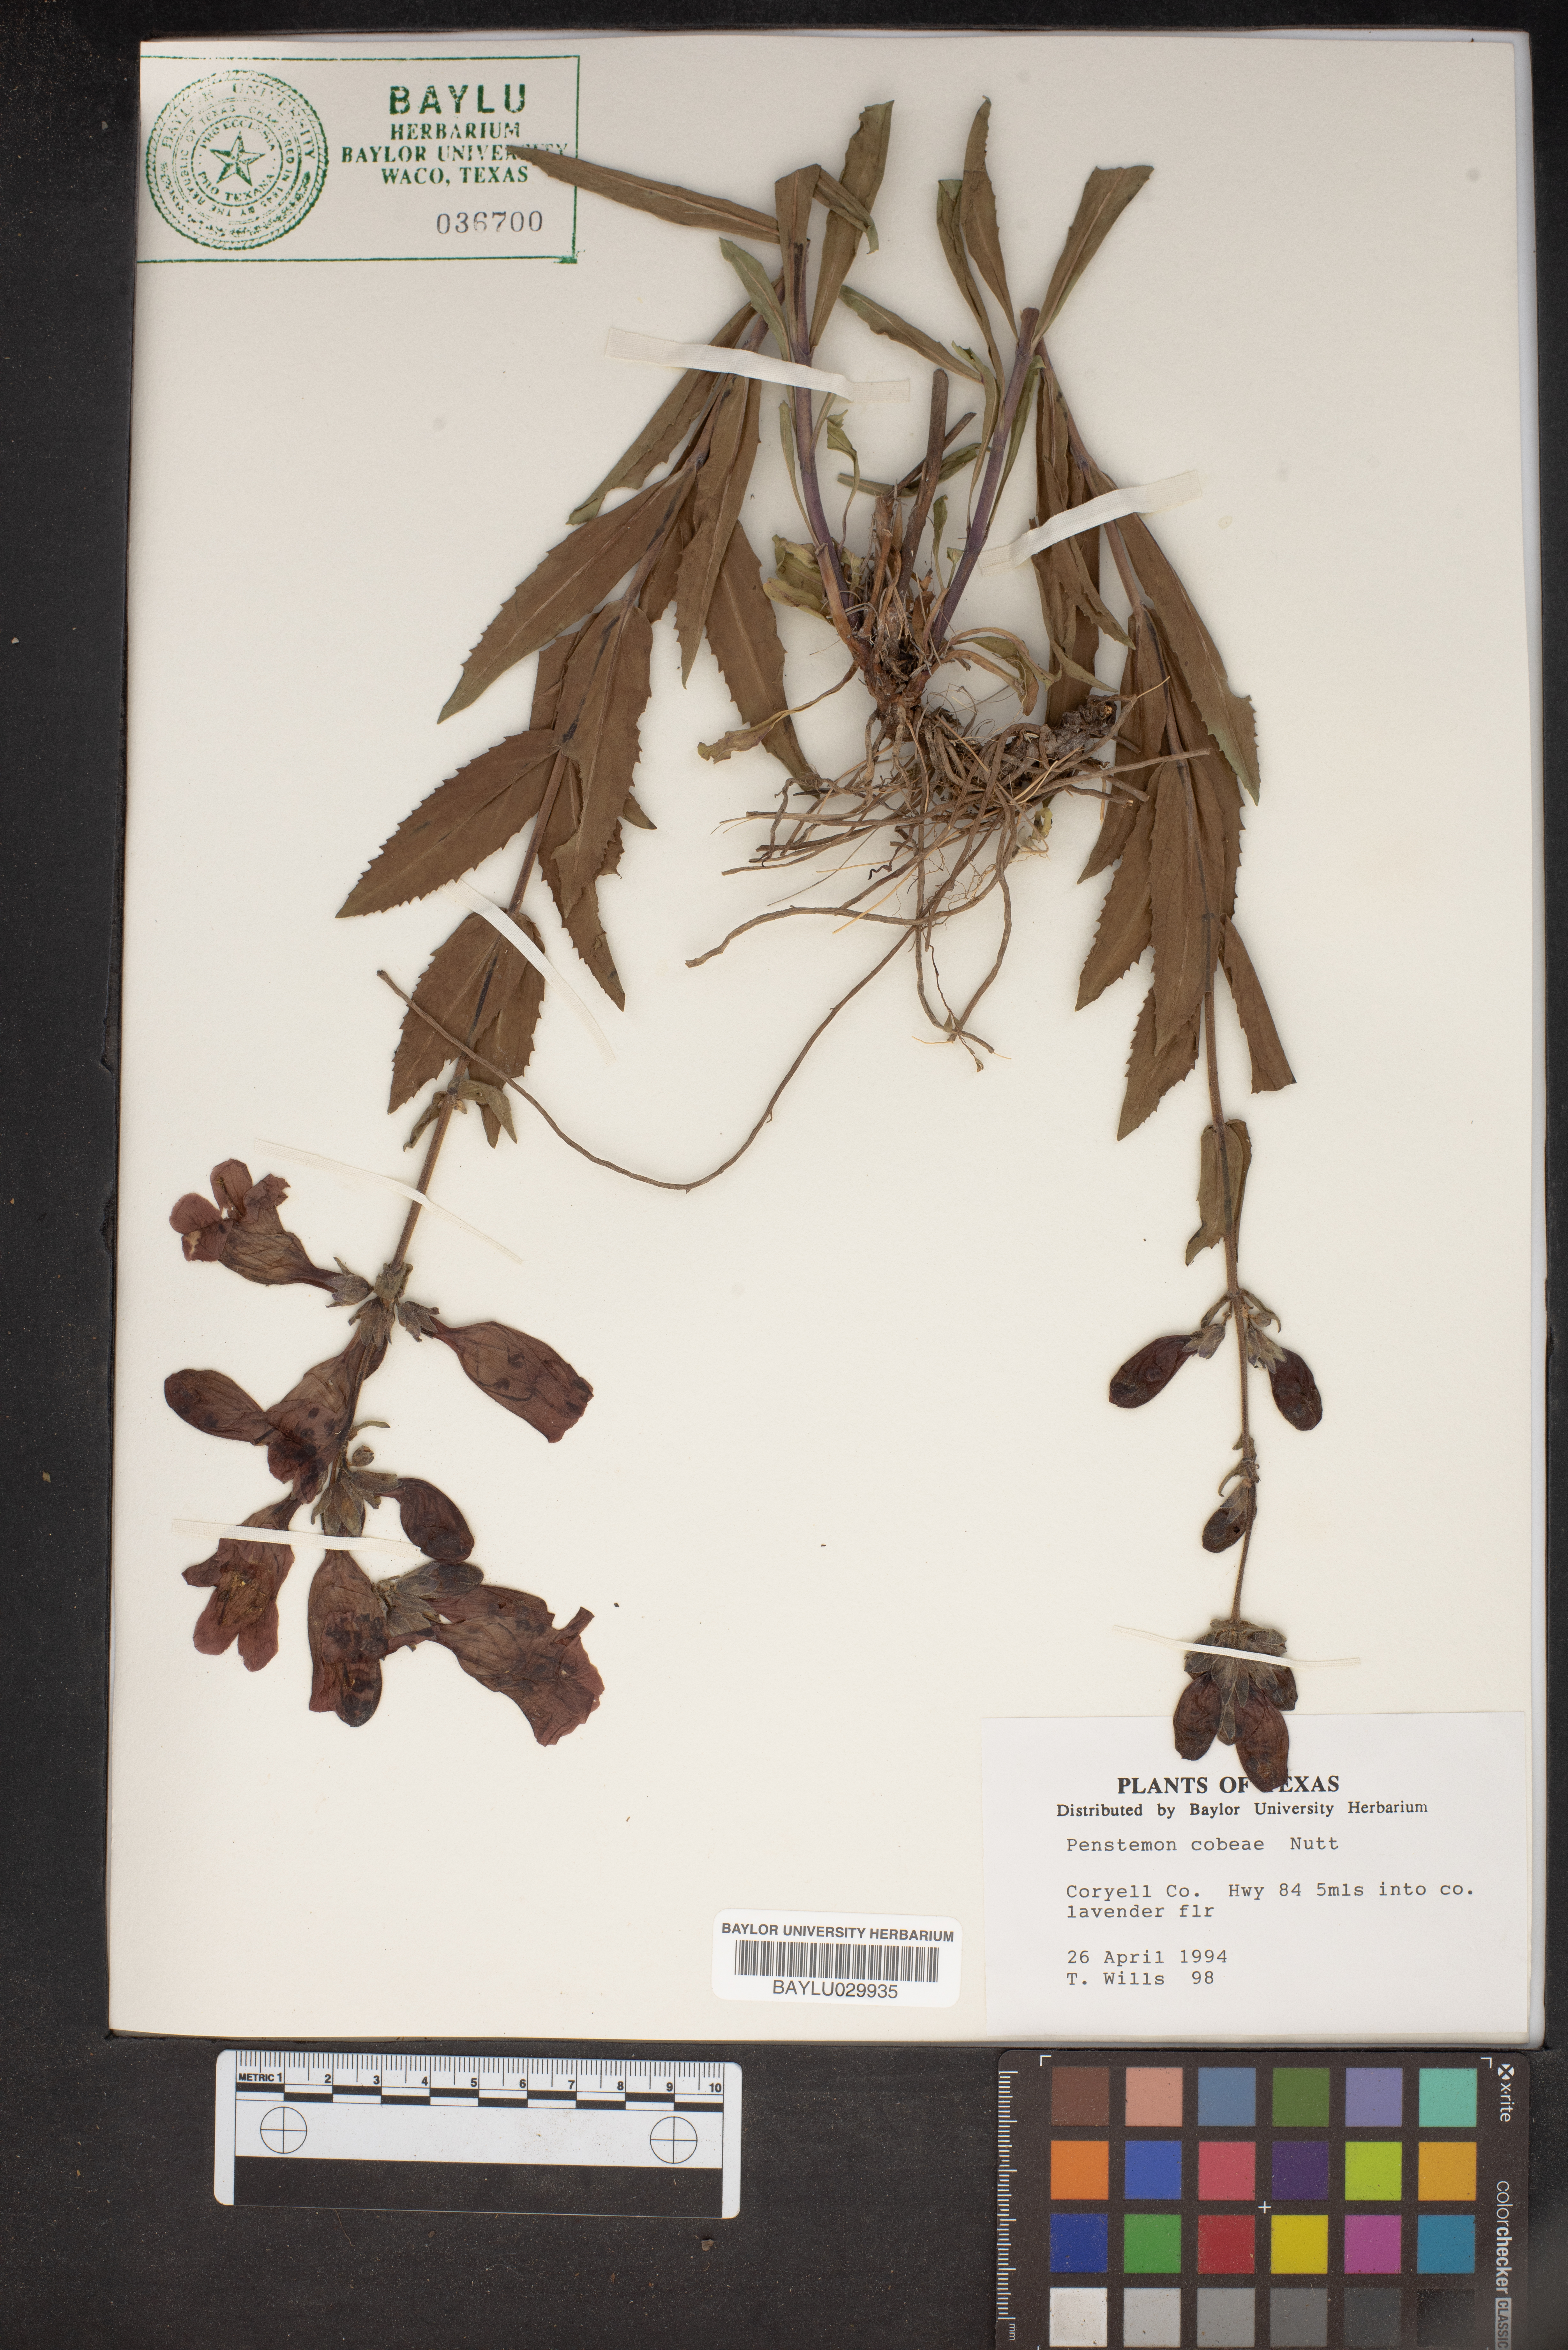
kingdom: Plantae
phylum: Tracheophyta
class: Magnoliopsida
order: Lamiales
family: Plantaginaceae
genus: Penstemon
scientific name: Penstemon cobaea
